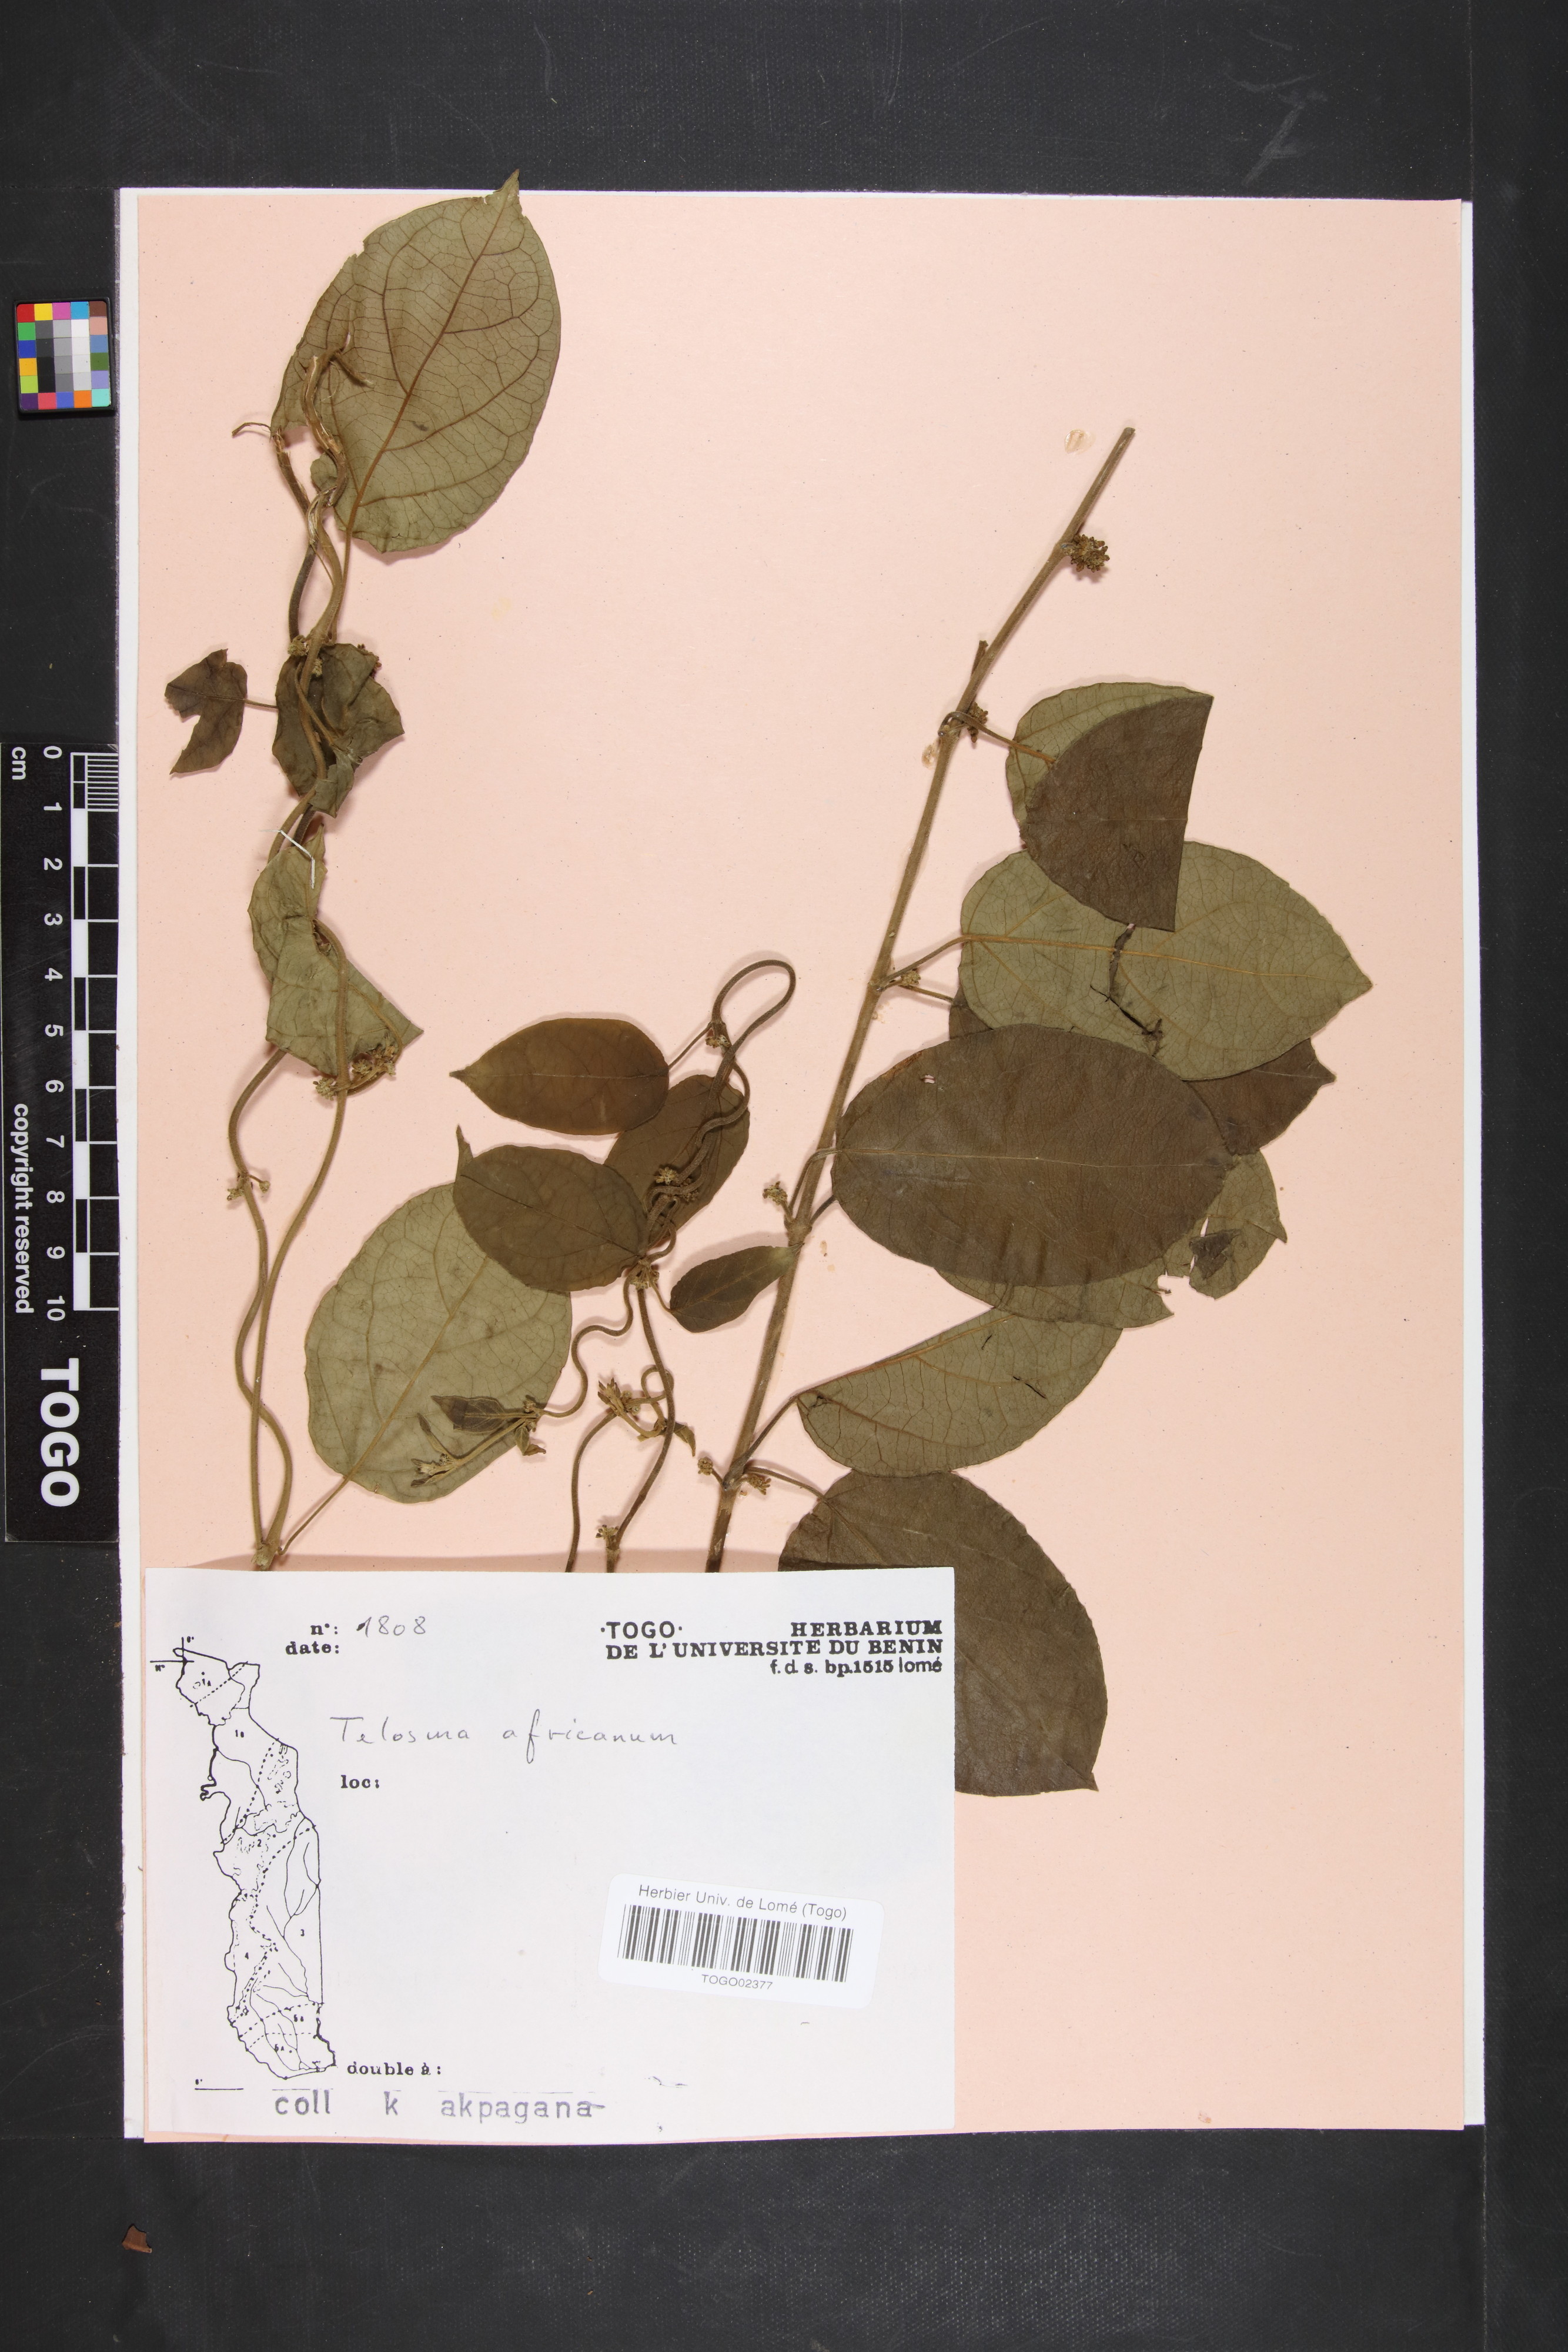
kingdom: Plantae
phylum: Tracheophyta
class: Magnoliopsida
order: Gentianales
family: Apocynaceae
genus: Telosma
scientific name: Telosma africana
